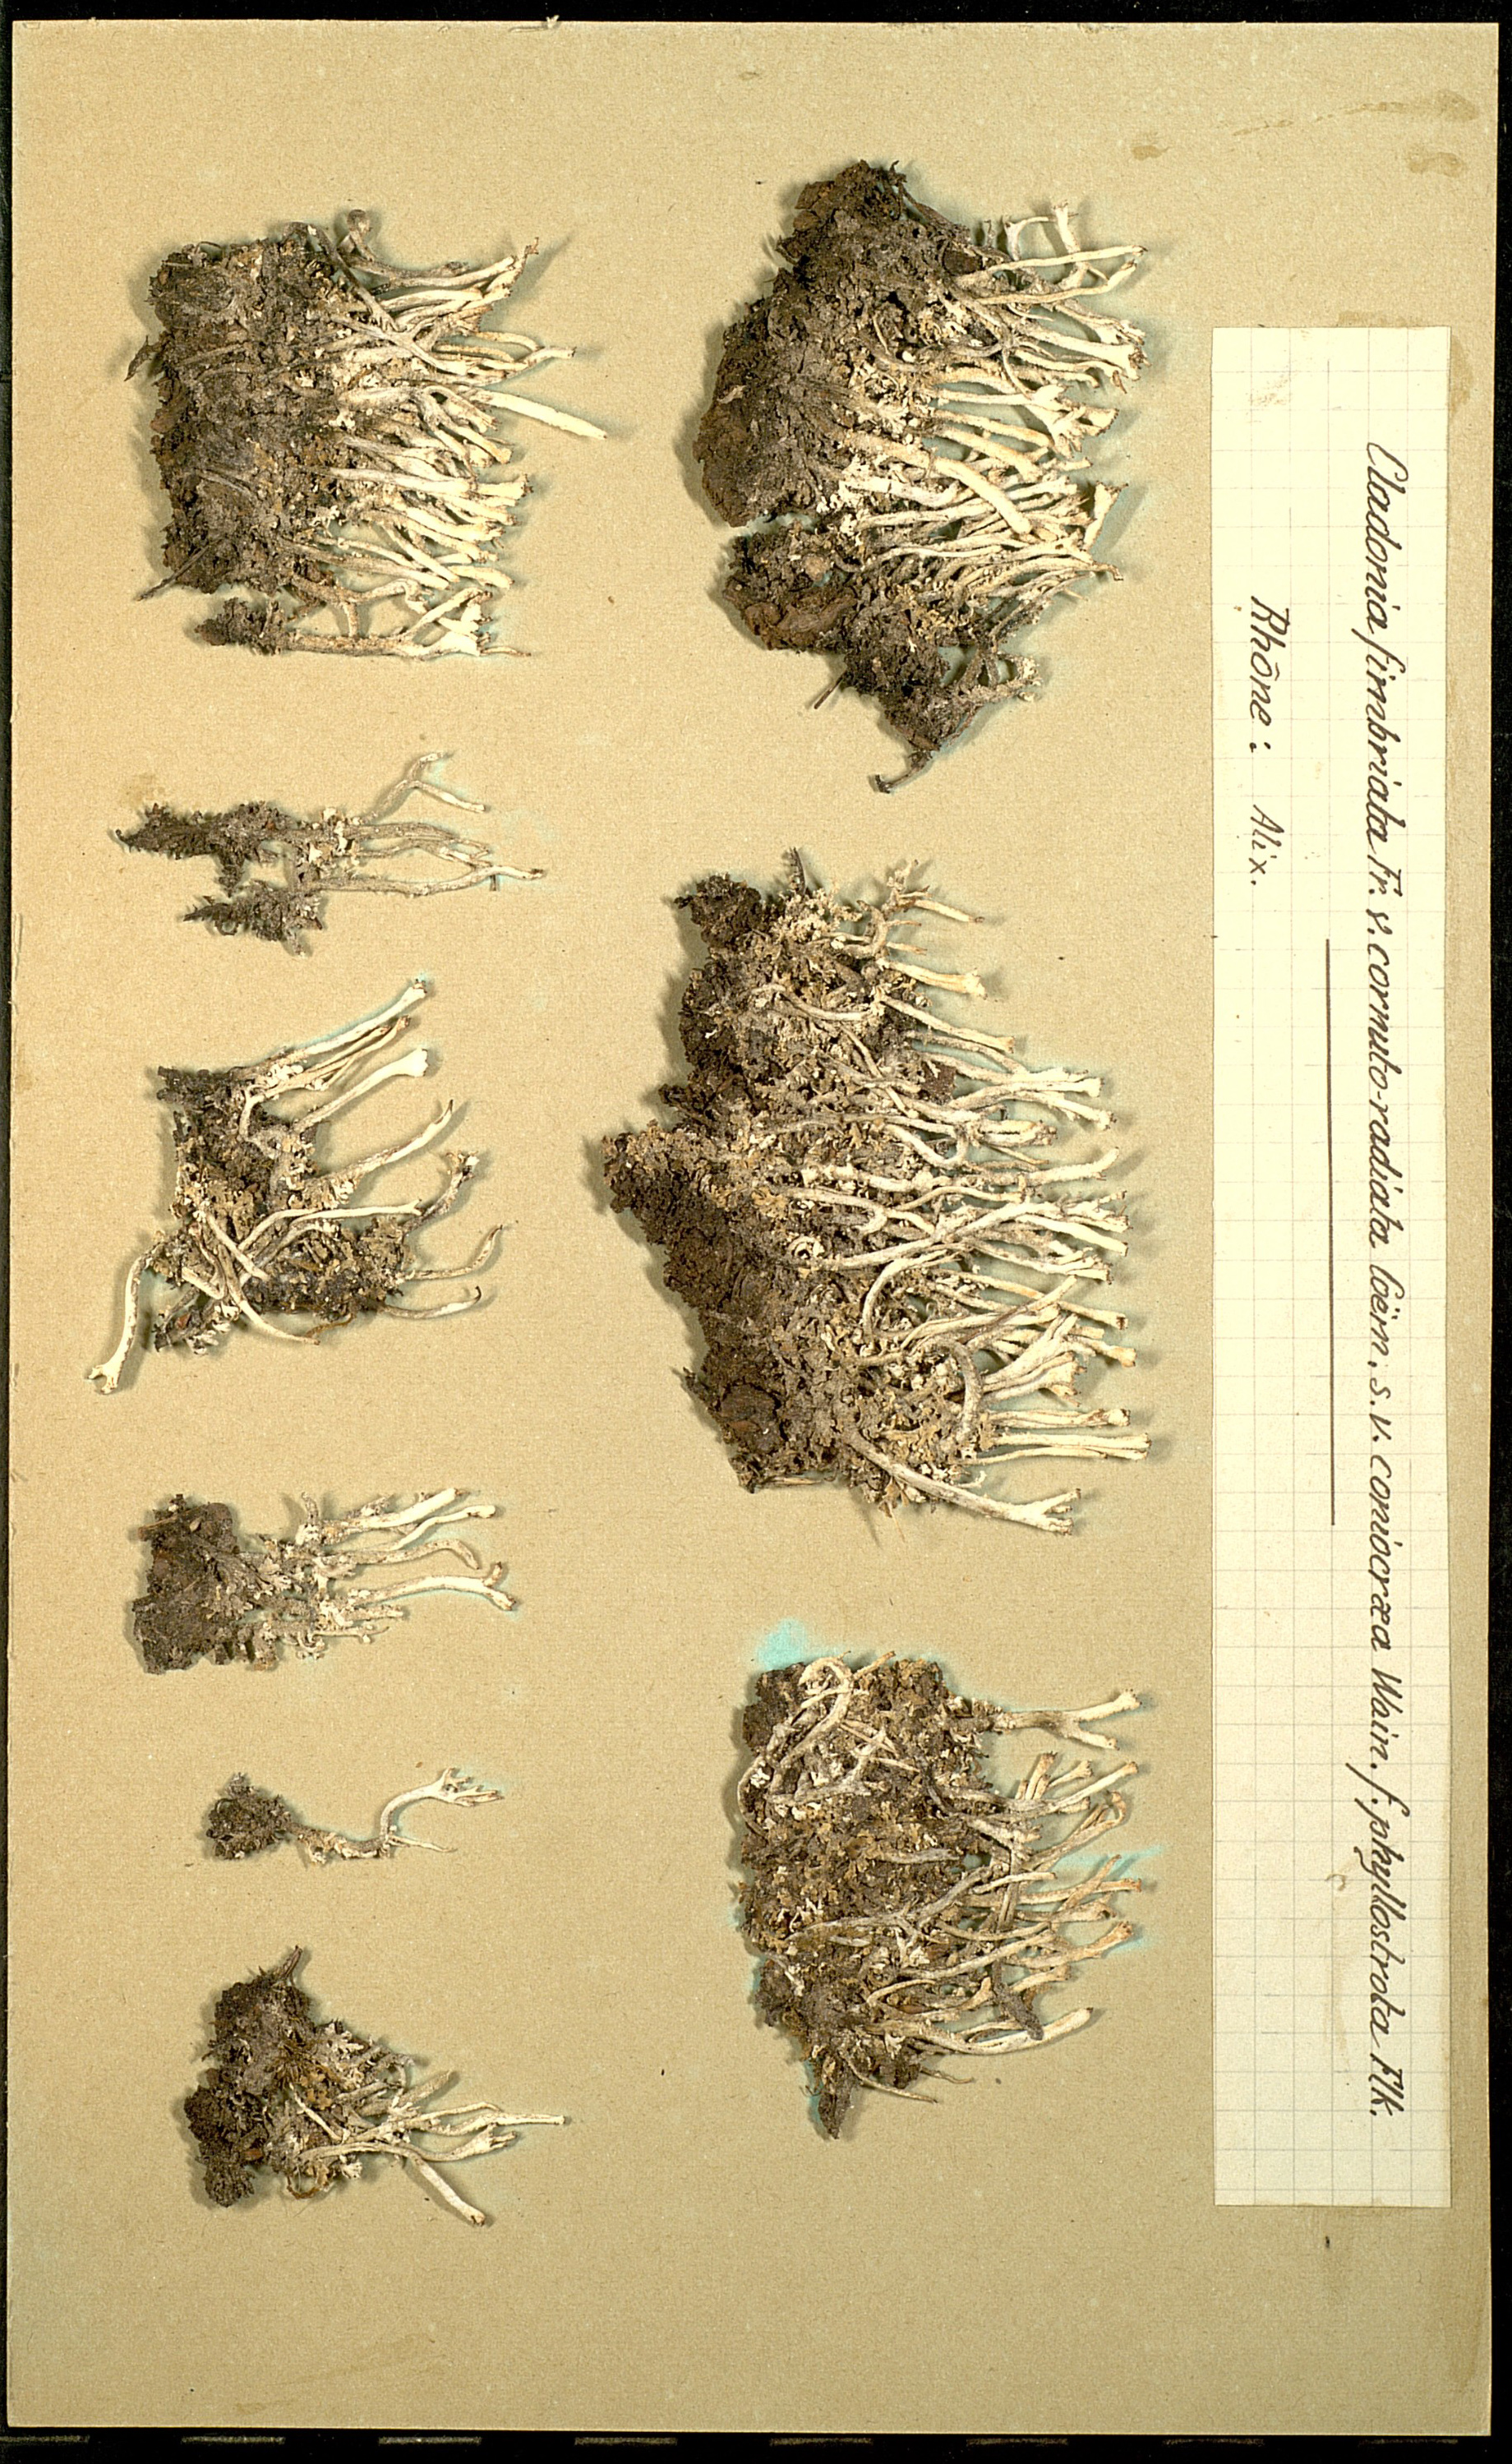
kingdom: Fungi
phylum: Ascomycota
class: Lecanoromycetes
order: Lecanorales
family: Cladoniaceae
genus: Cladonia
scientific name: Cladonia fimbriata
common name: Powdered trumpet lichen
